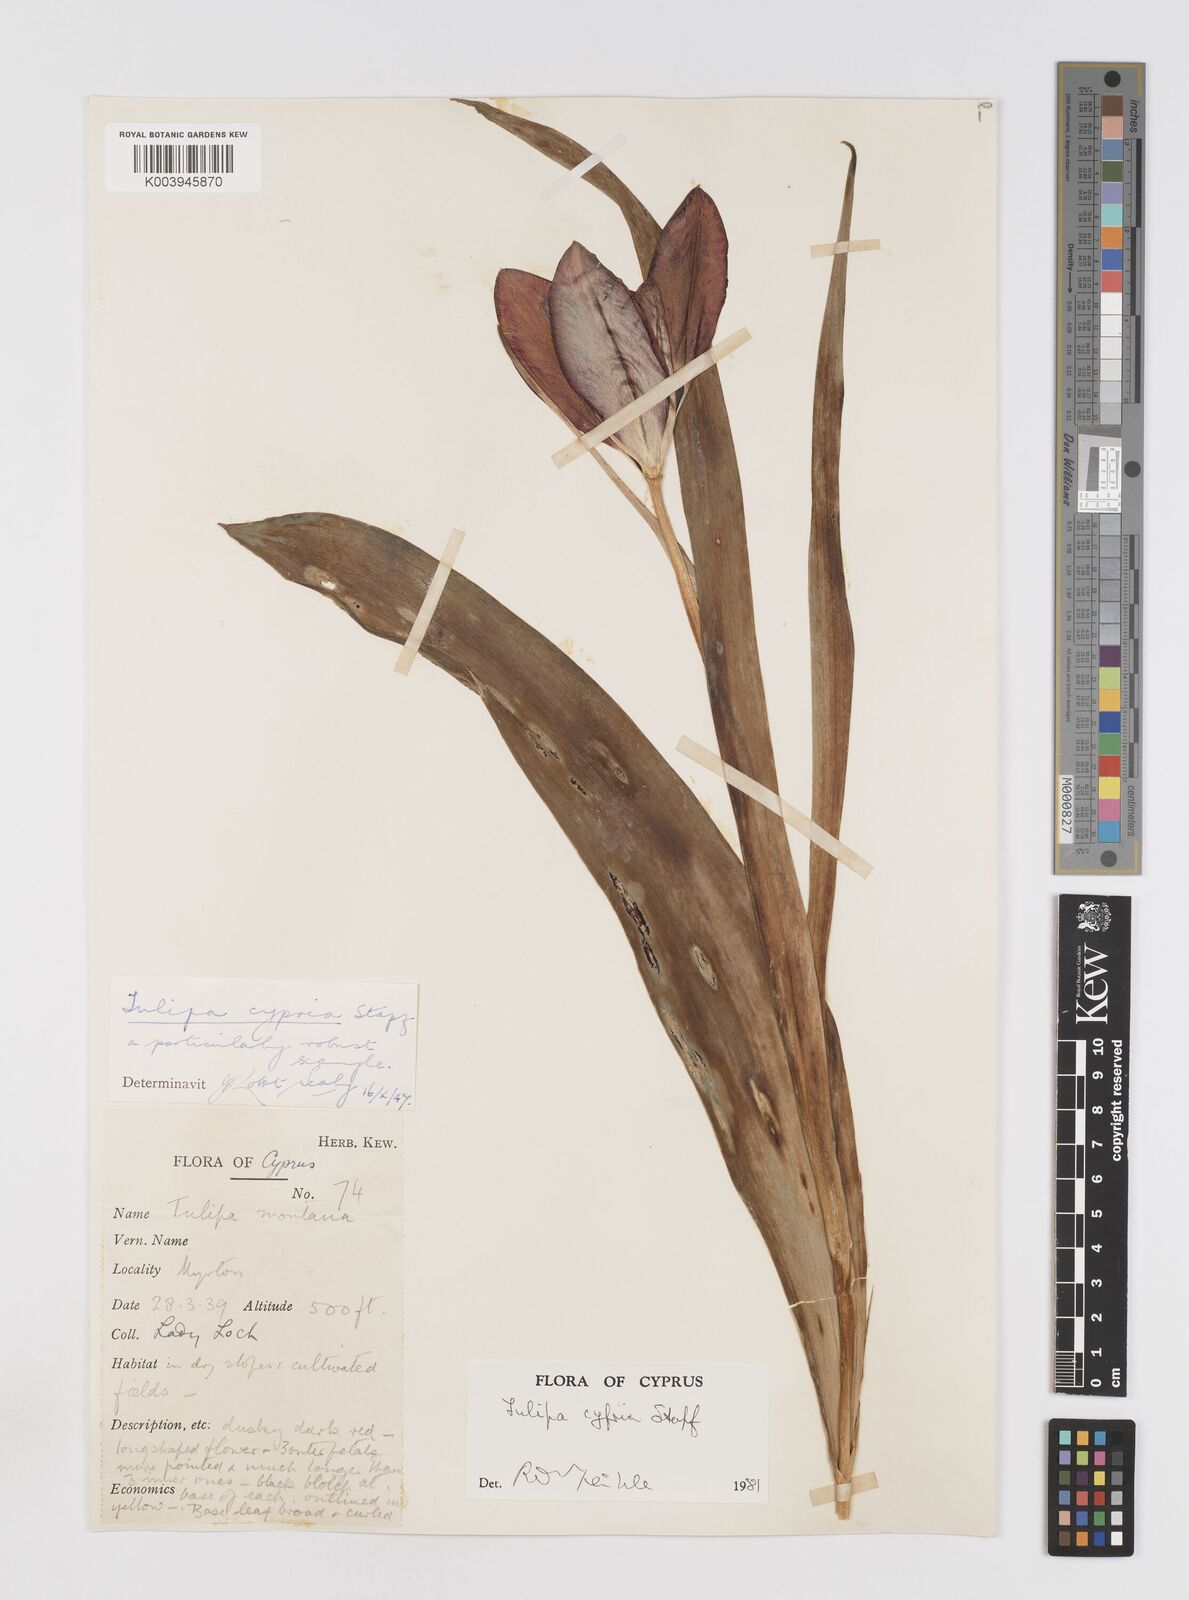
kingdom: Plantae
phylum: Tracheophyta
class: Liliopsida
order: Liliales
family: Liliaceae
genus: Tulipa
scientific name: Tulipa cypria
